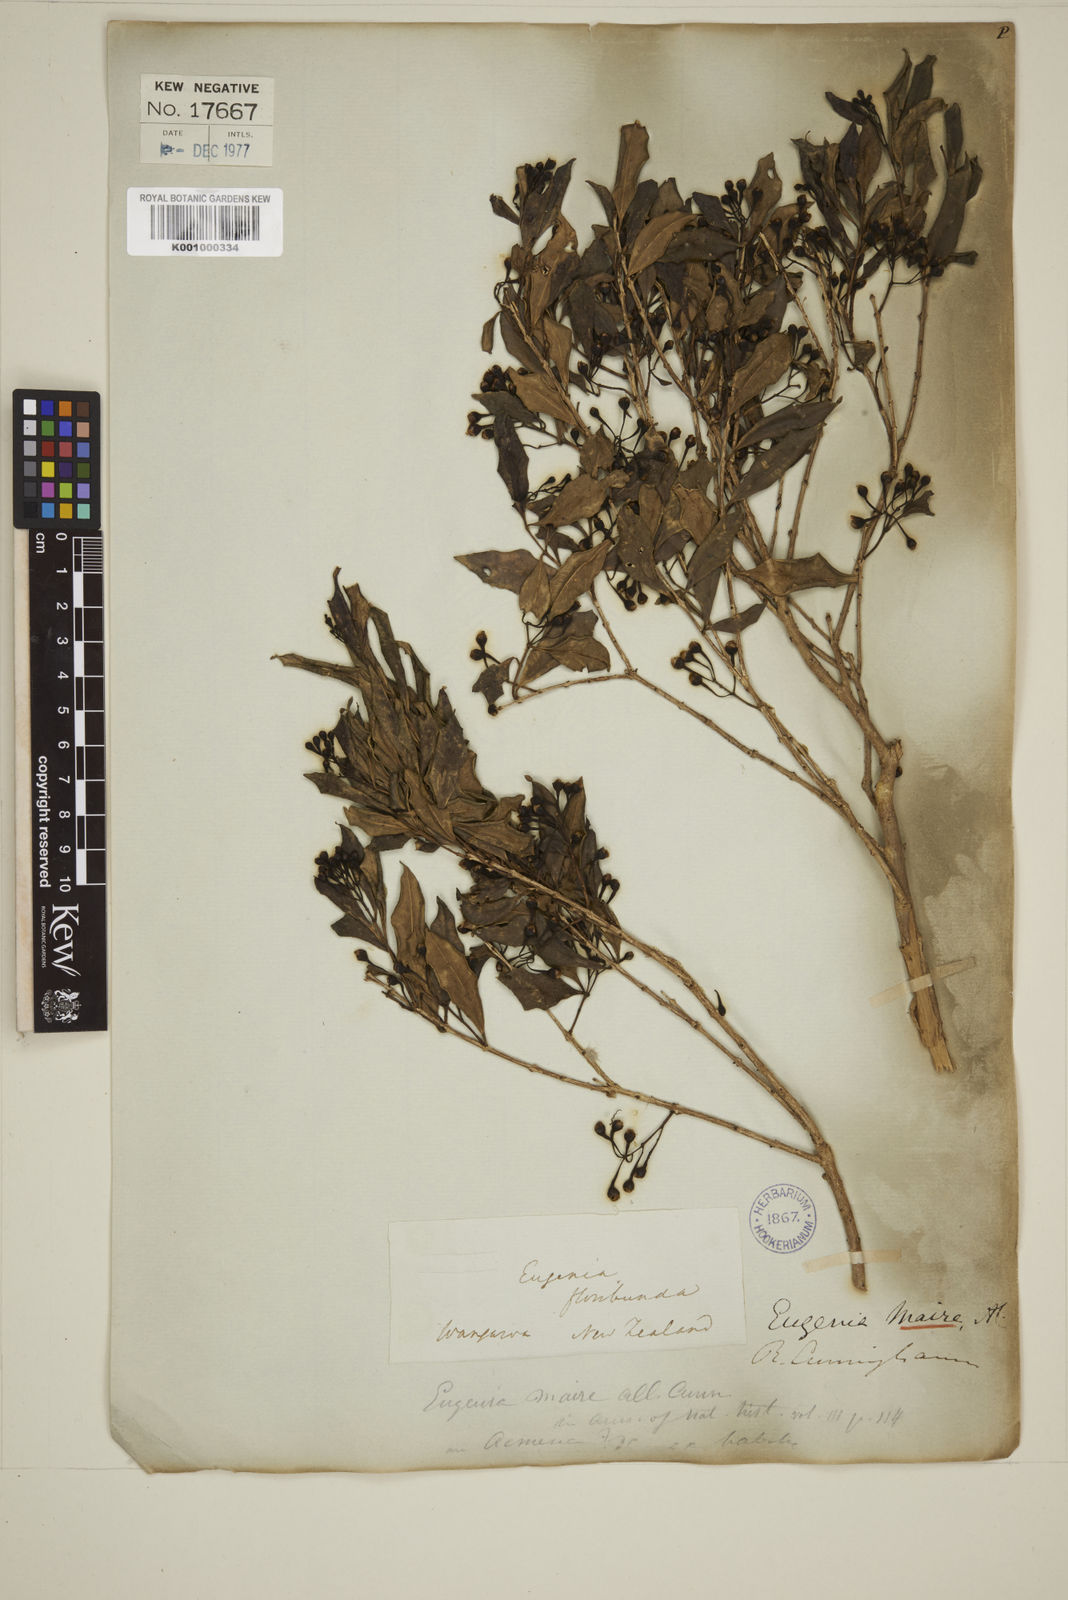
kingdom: Plantae
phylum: Tracheophyta
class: Magnoliopsida
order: Myrtales
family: Myrtaceae
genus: Syzygium
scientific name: Syzygium maire
